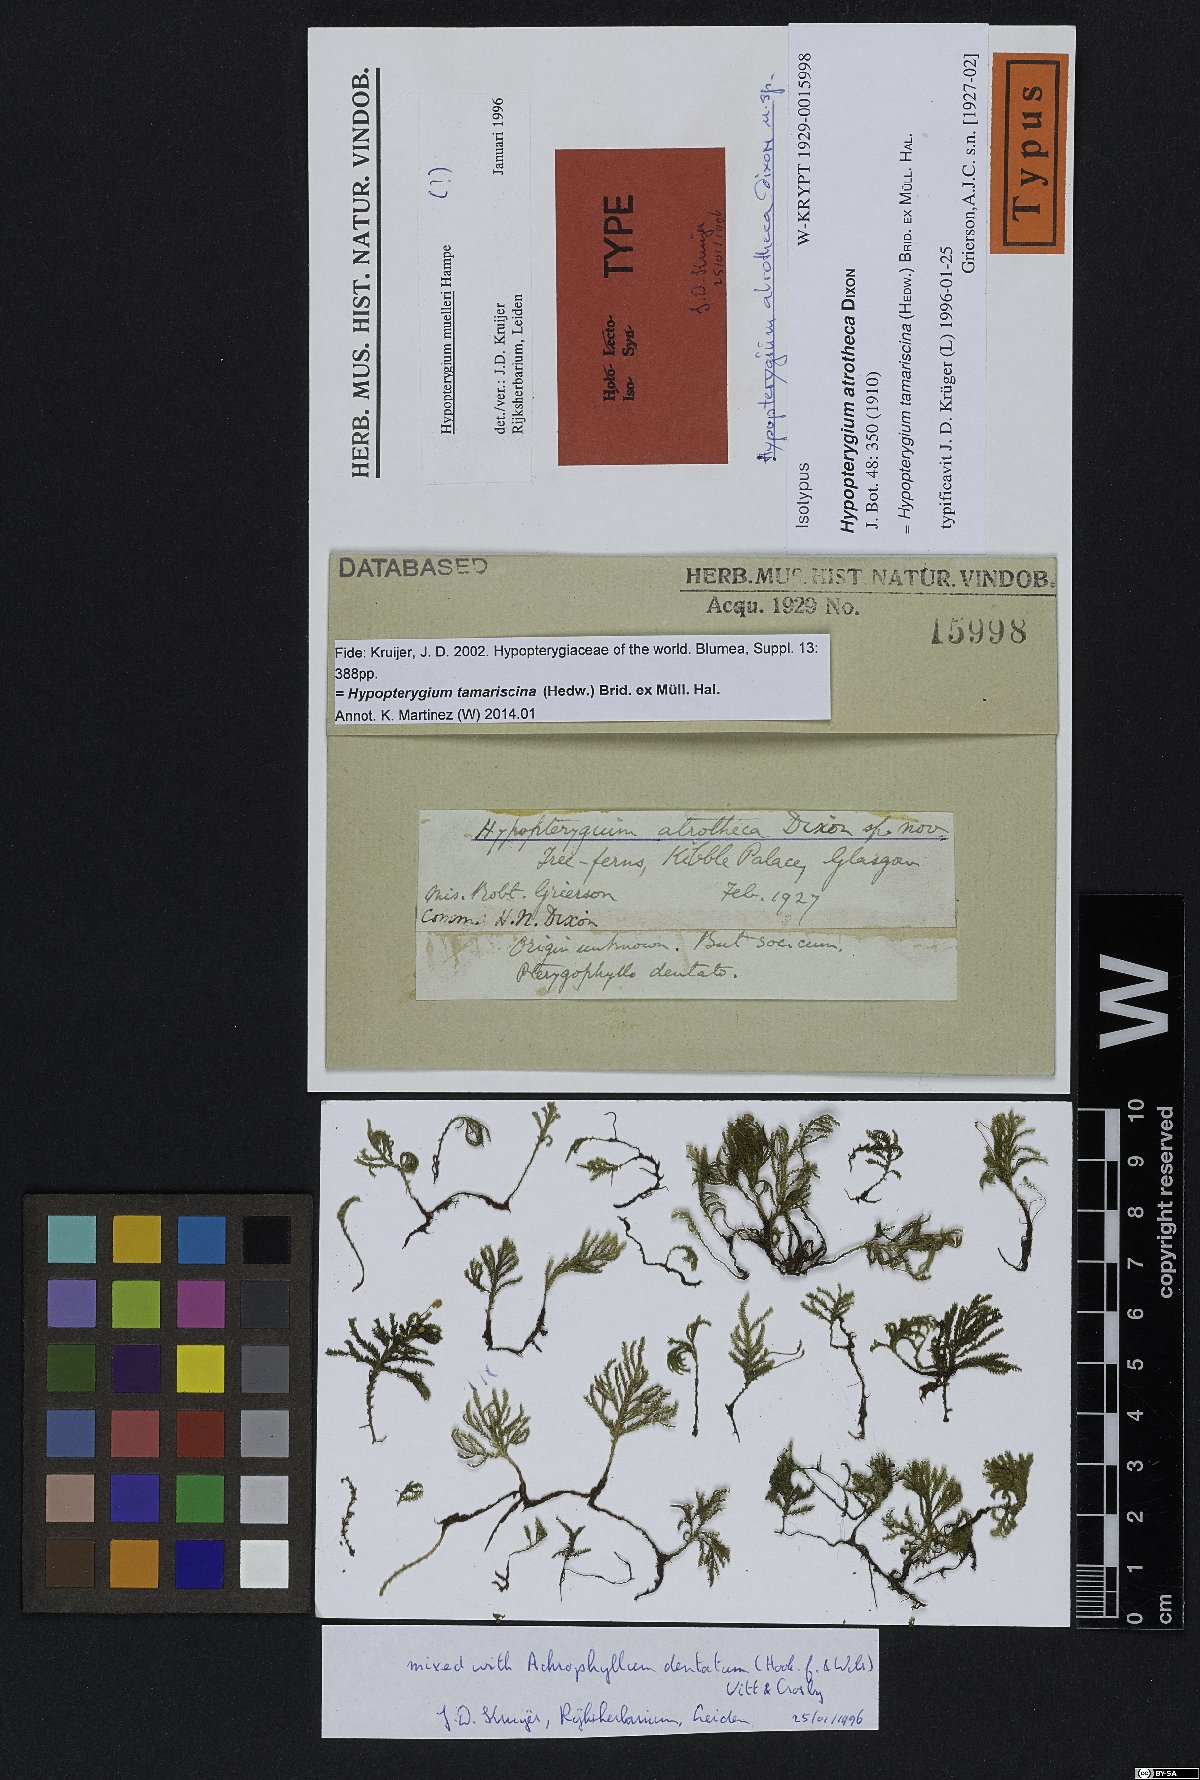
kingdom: Plantae
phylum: Bryophyta
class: Bryopsida
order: Hypopterygiales
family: Hypopterygiaceae
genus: Hypopterygium
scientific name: Hypopterygium tamarisci
